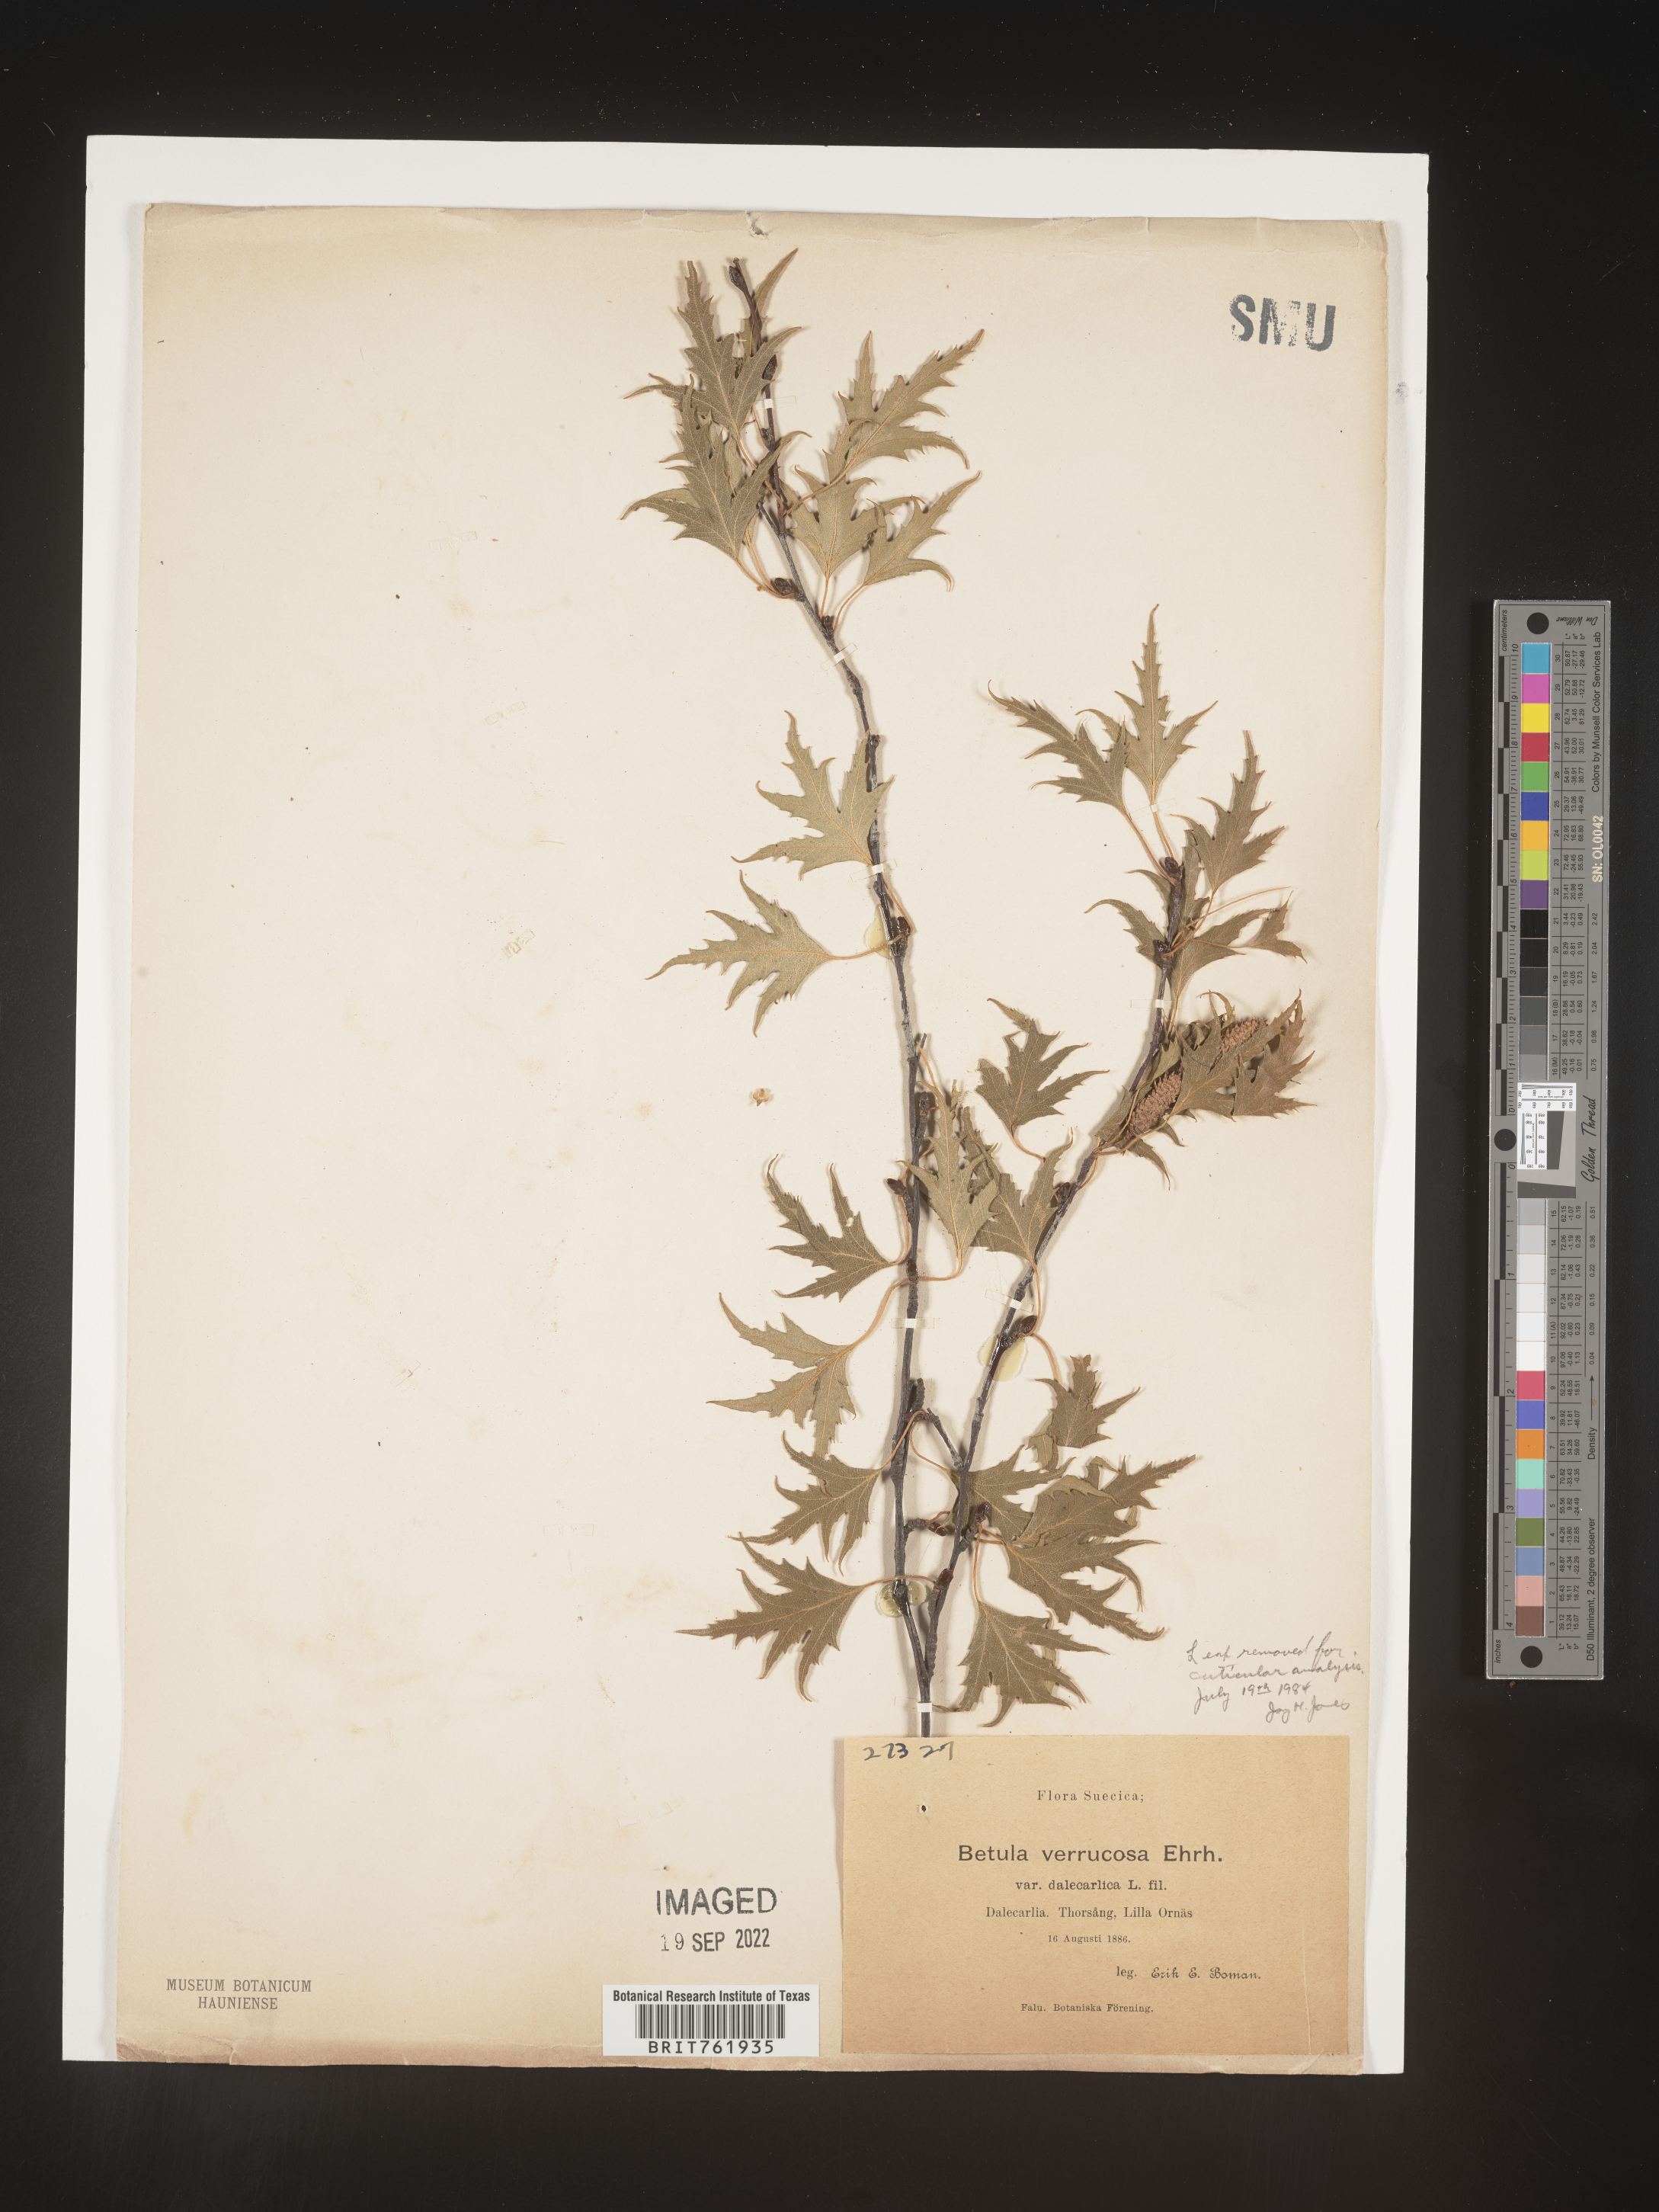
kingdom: Plantae
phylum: Tracheophyta
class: Magnoliopsida
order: Fagales
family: Betulaceae
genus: Betula
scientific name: Betula
